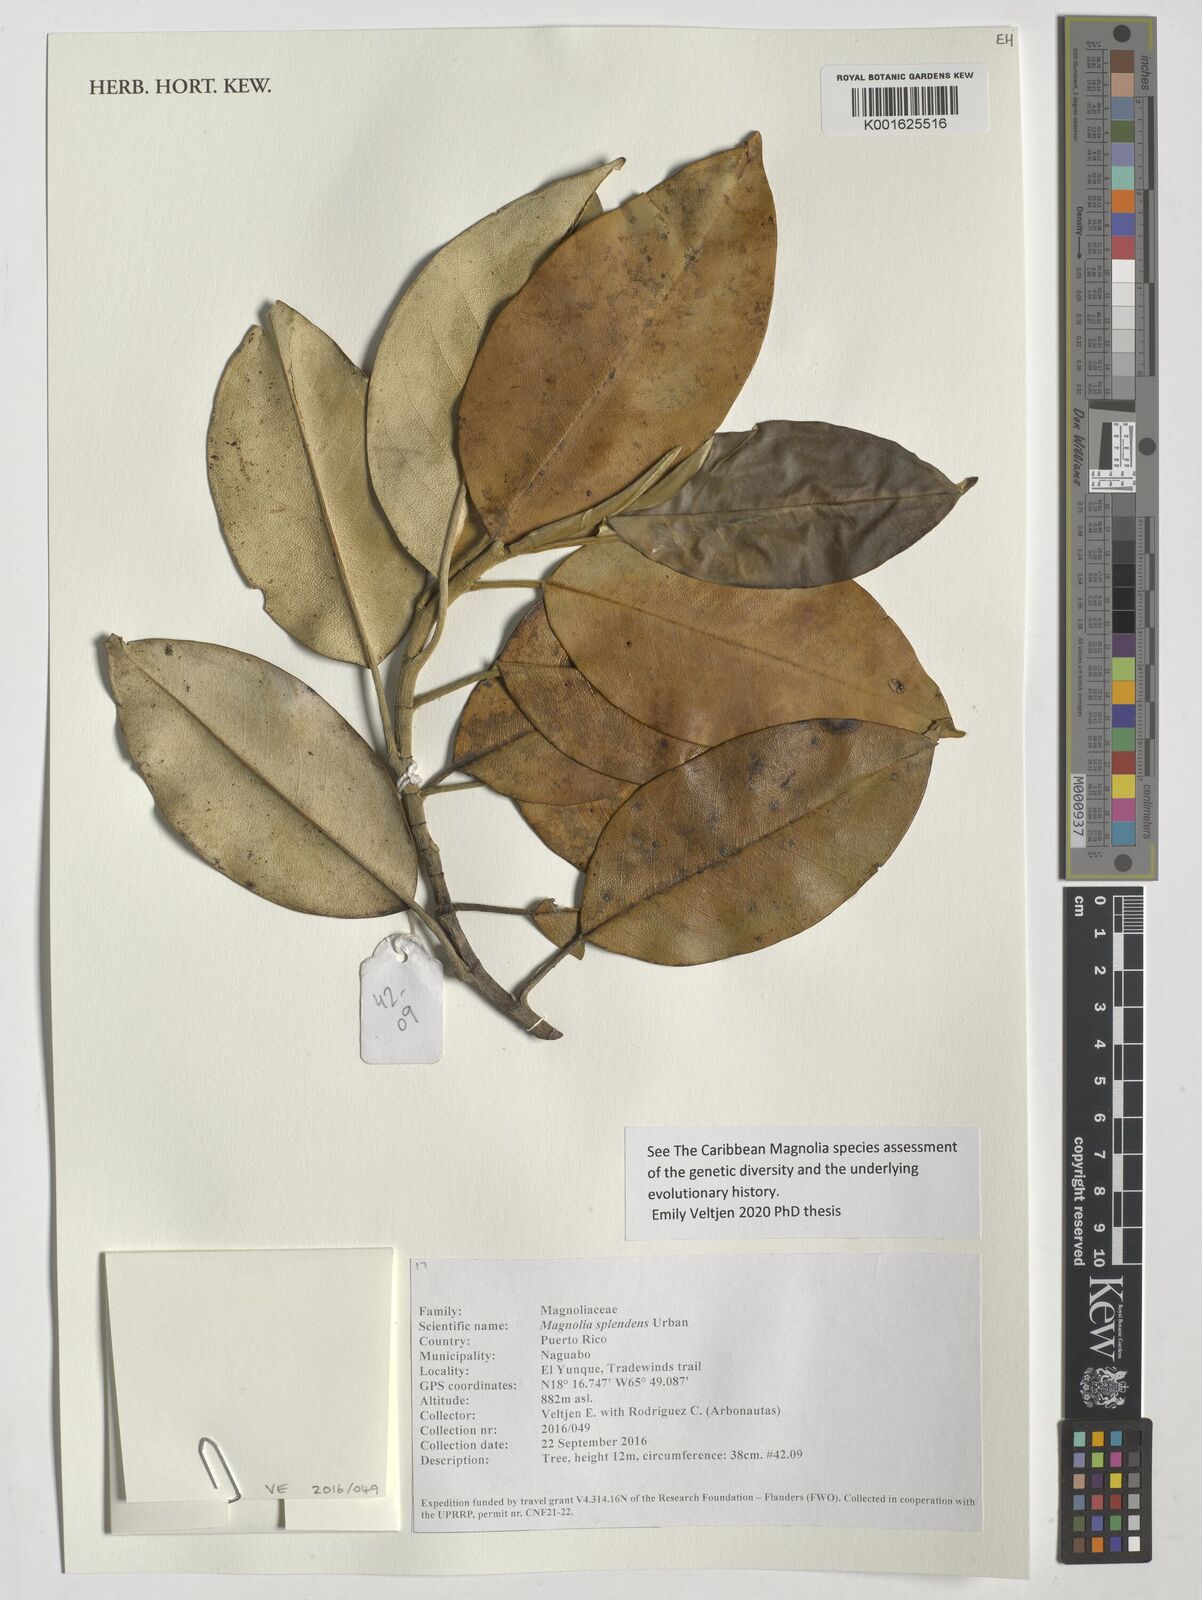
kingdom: Plantae
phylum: Tracheophyta
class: Magnoliopsida
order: Magnoliales
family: Magnoliaceae
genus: Magnolia
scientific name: Magnolia splendens
